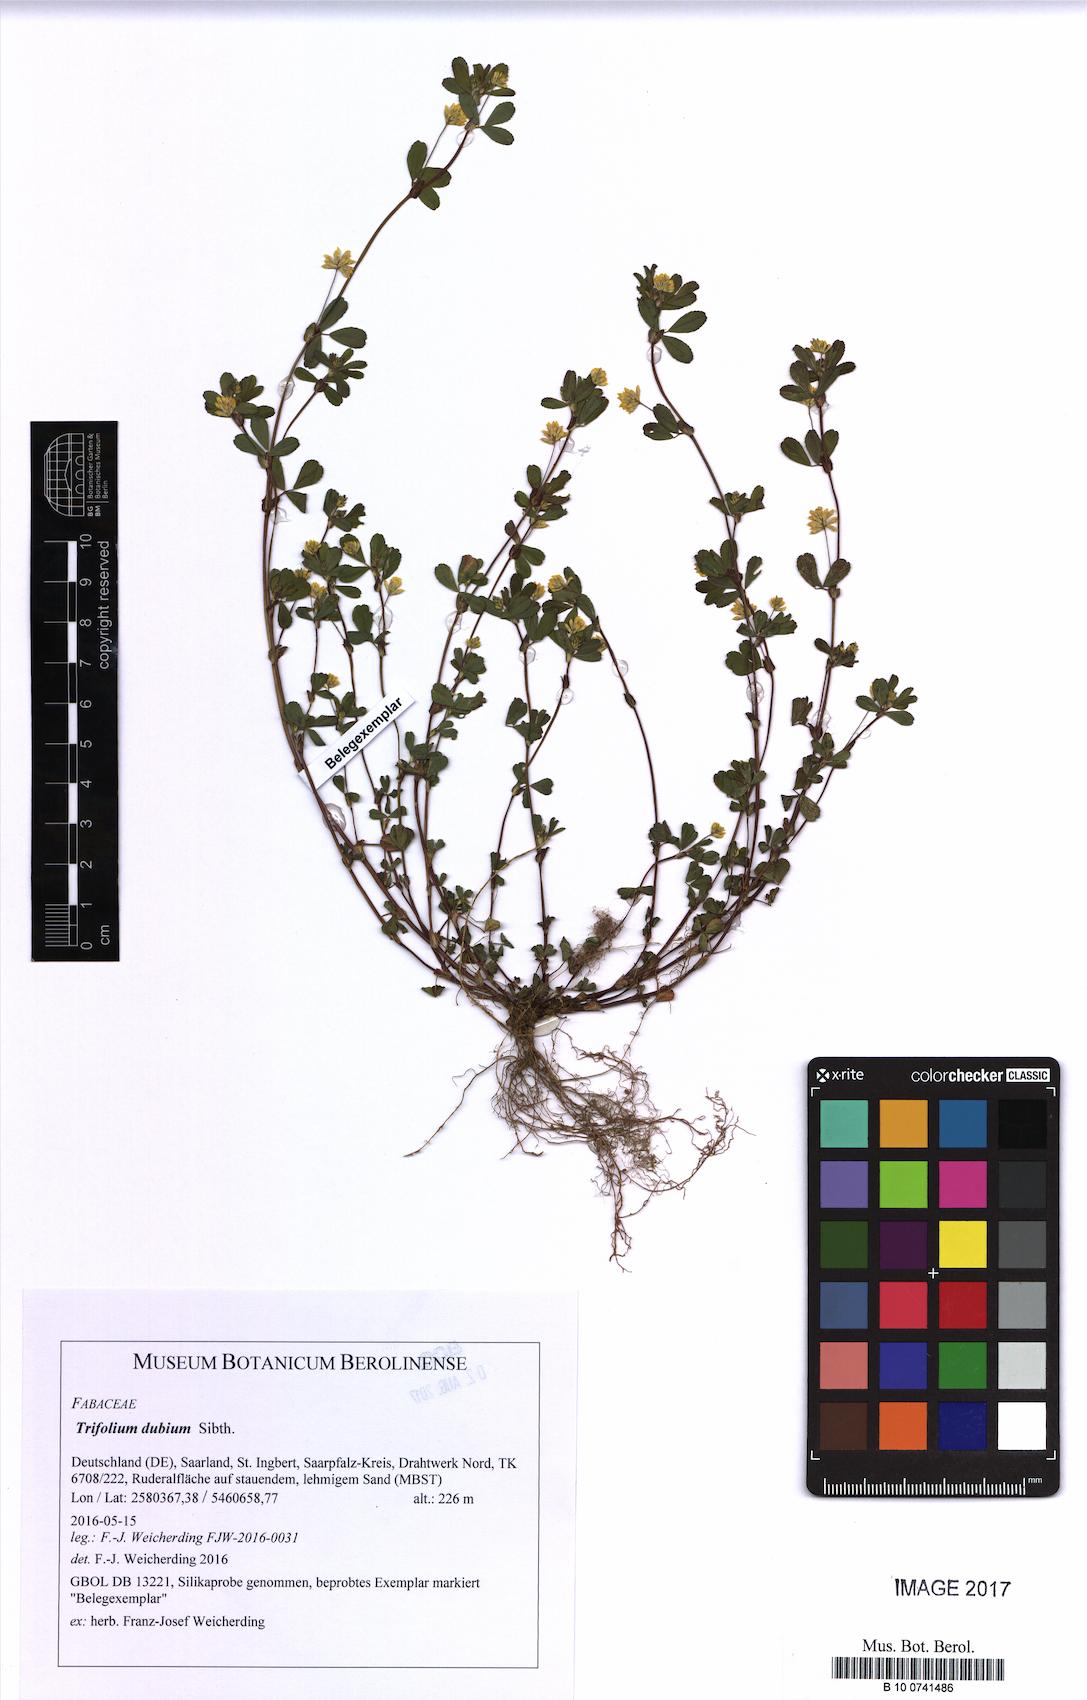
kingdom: Plantae
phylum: Tracheophyta
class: Magnoliopsida
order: Fabales
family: Fabaceae
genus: Trifolium
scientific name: Trifolium dubium
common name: Suckling clover
